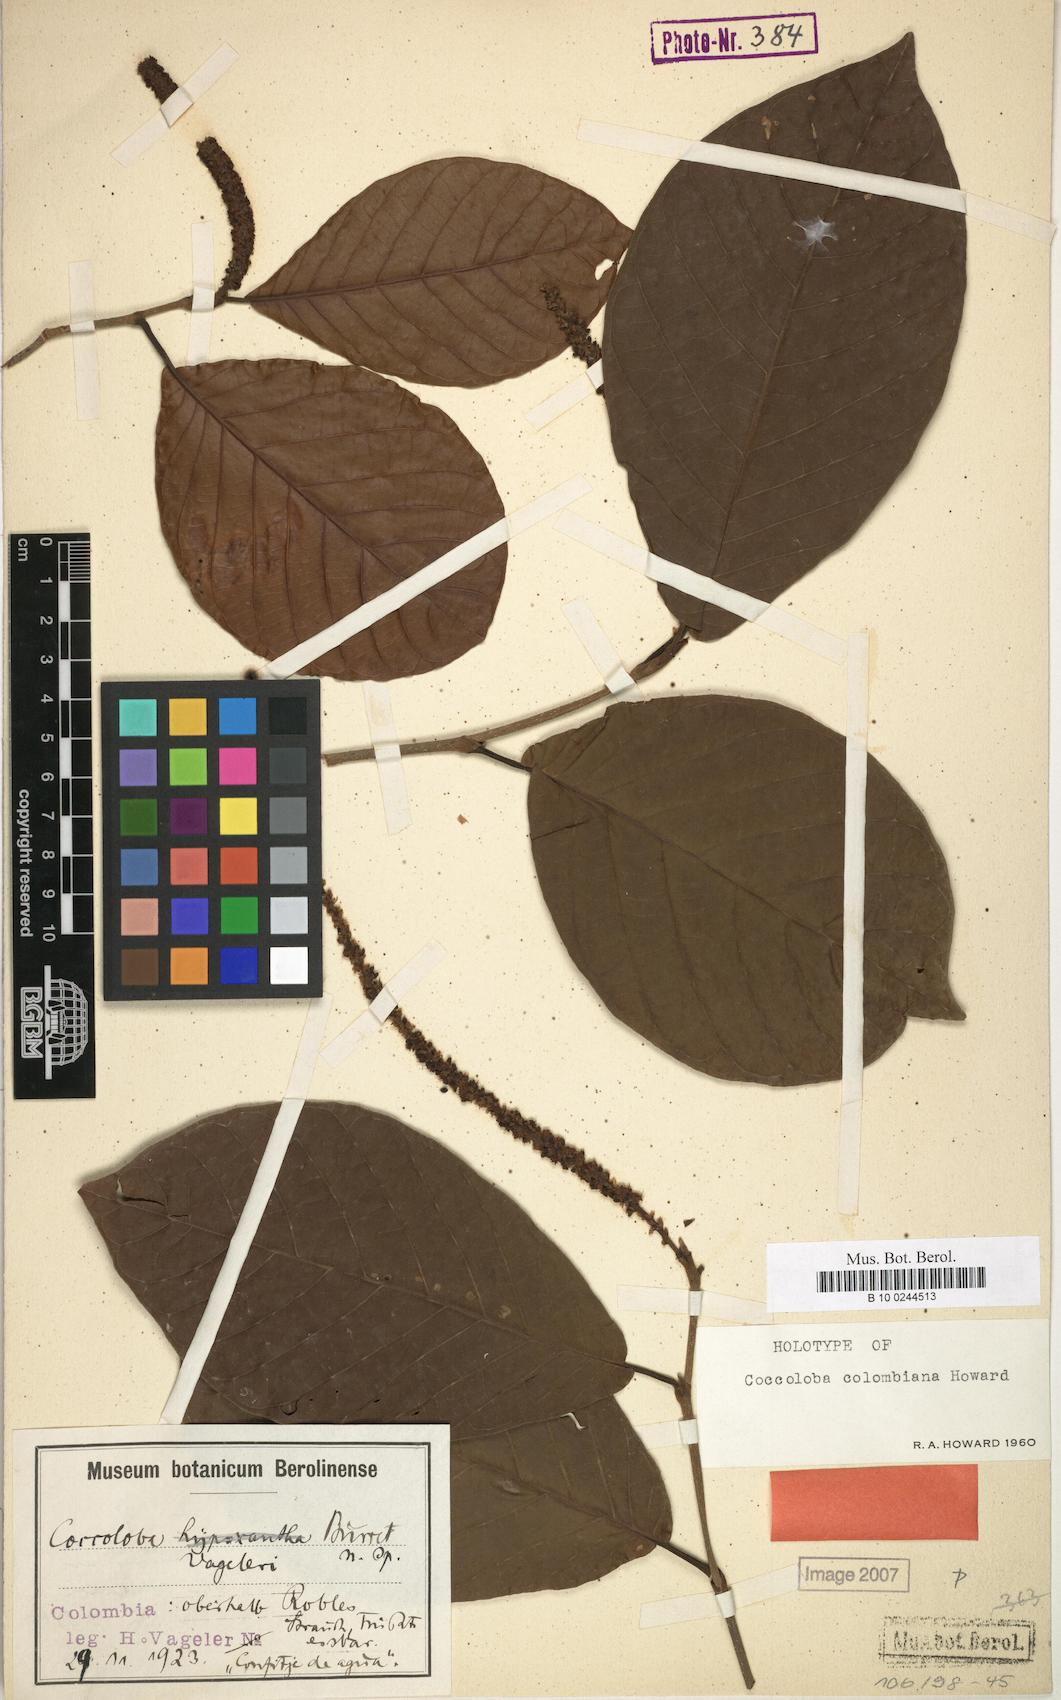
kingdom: Plantae
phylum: Tracheophyta
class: Magnoliopsida
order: Caryophyllales
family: Polygonaceae
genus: Coccoloba
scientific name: Coccoloba colombiana
